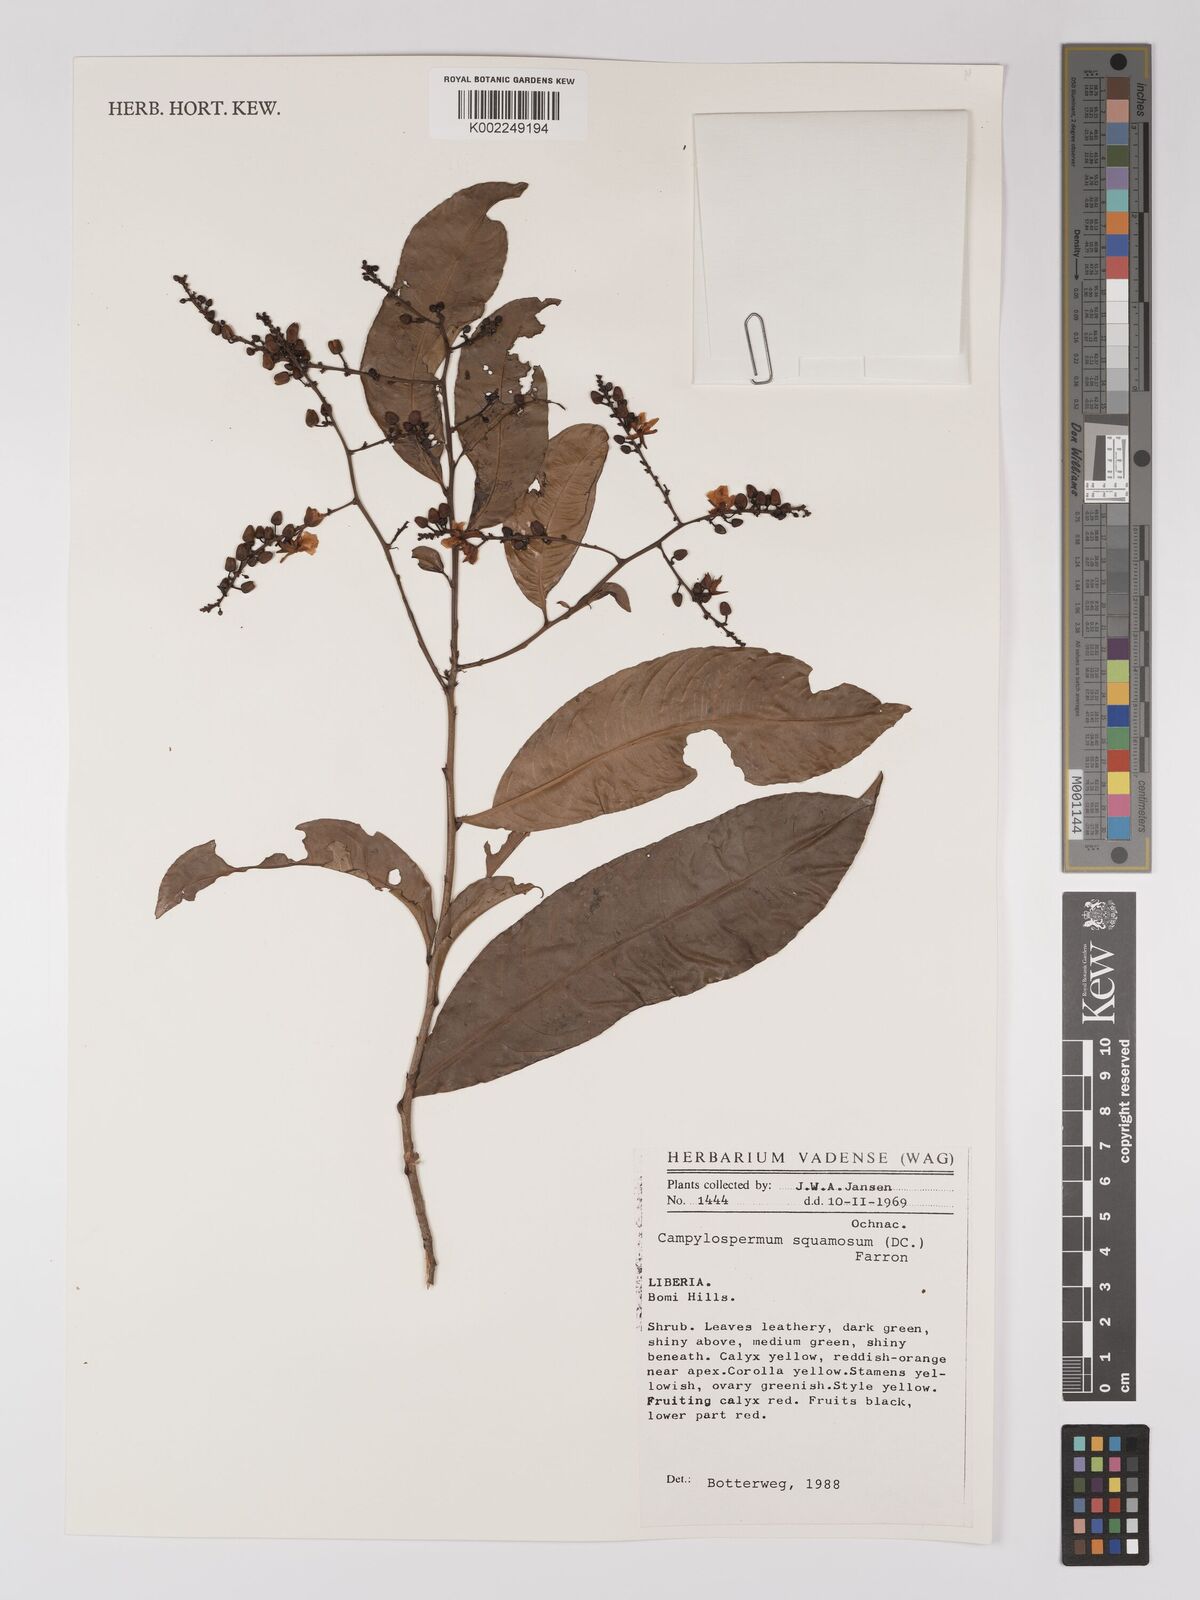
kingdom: Plantae
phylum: Tracheophyta
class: Magnoliopsida
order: Malpighiales
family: Ochnaceae
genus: Campylospermum
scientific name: Campylospermum squamosum
